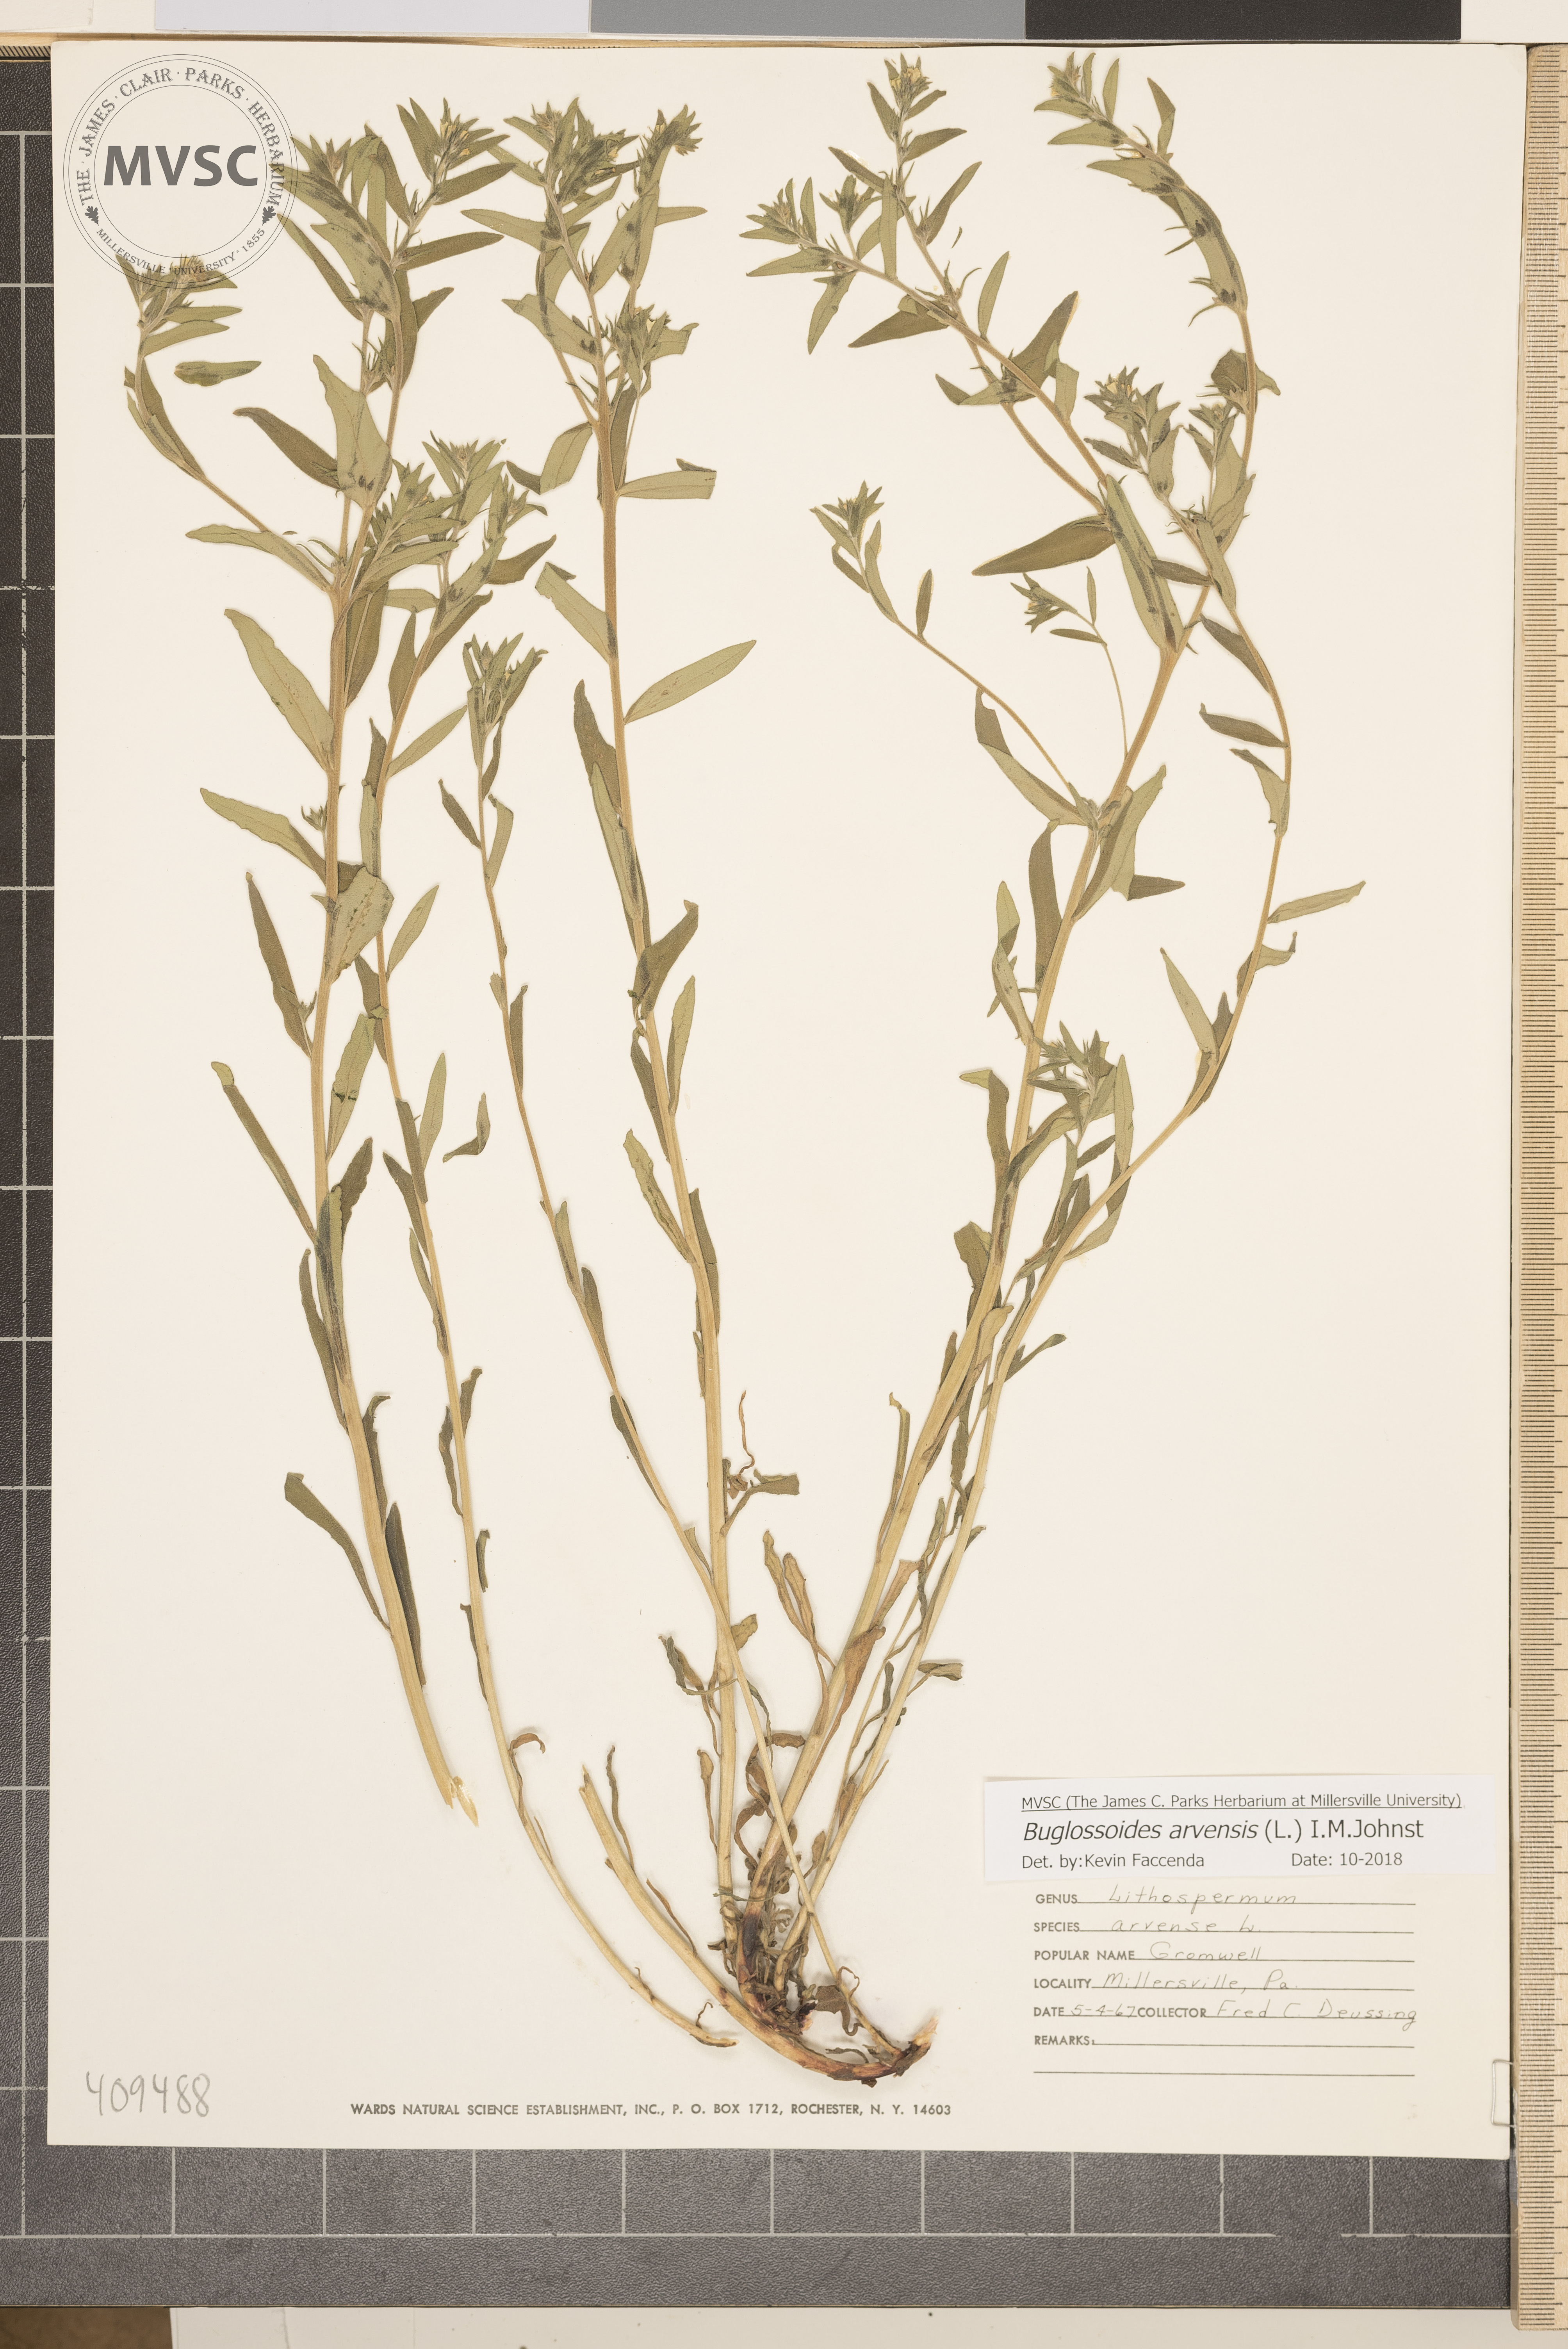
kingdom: Plantae
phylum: Tracheophyta
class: Magnoliopsida
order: Boraginales
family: Boraginaceae
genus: Buglossoides
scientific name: Buglossoides arvensis
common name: Corn gromwell
